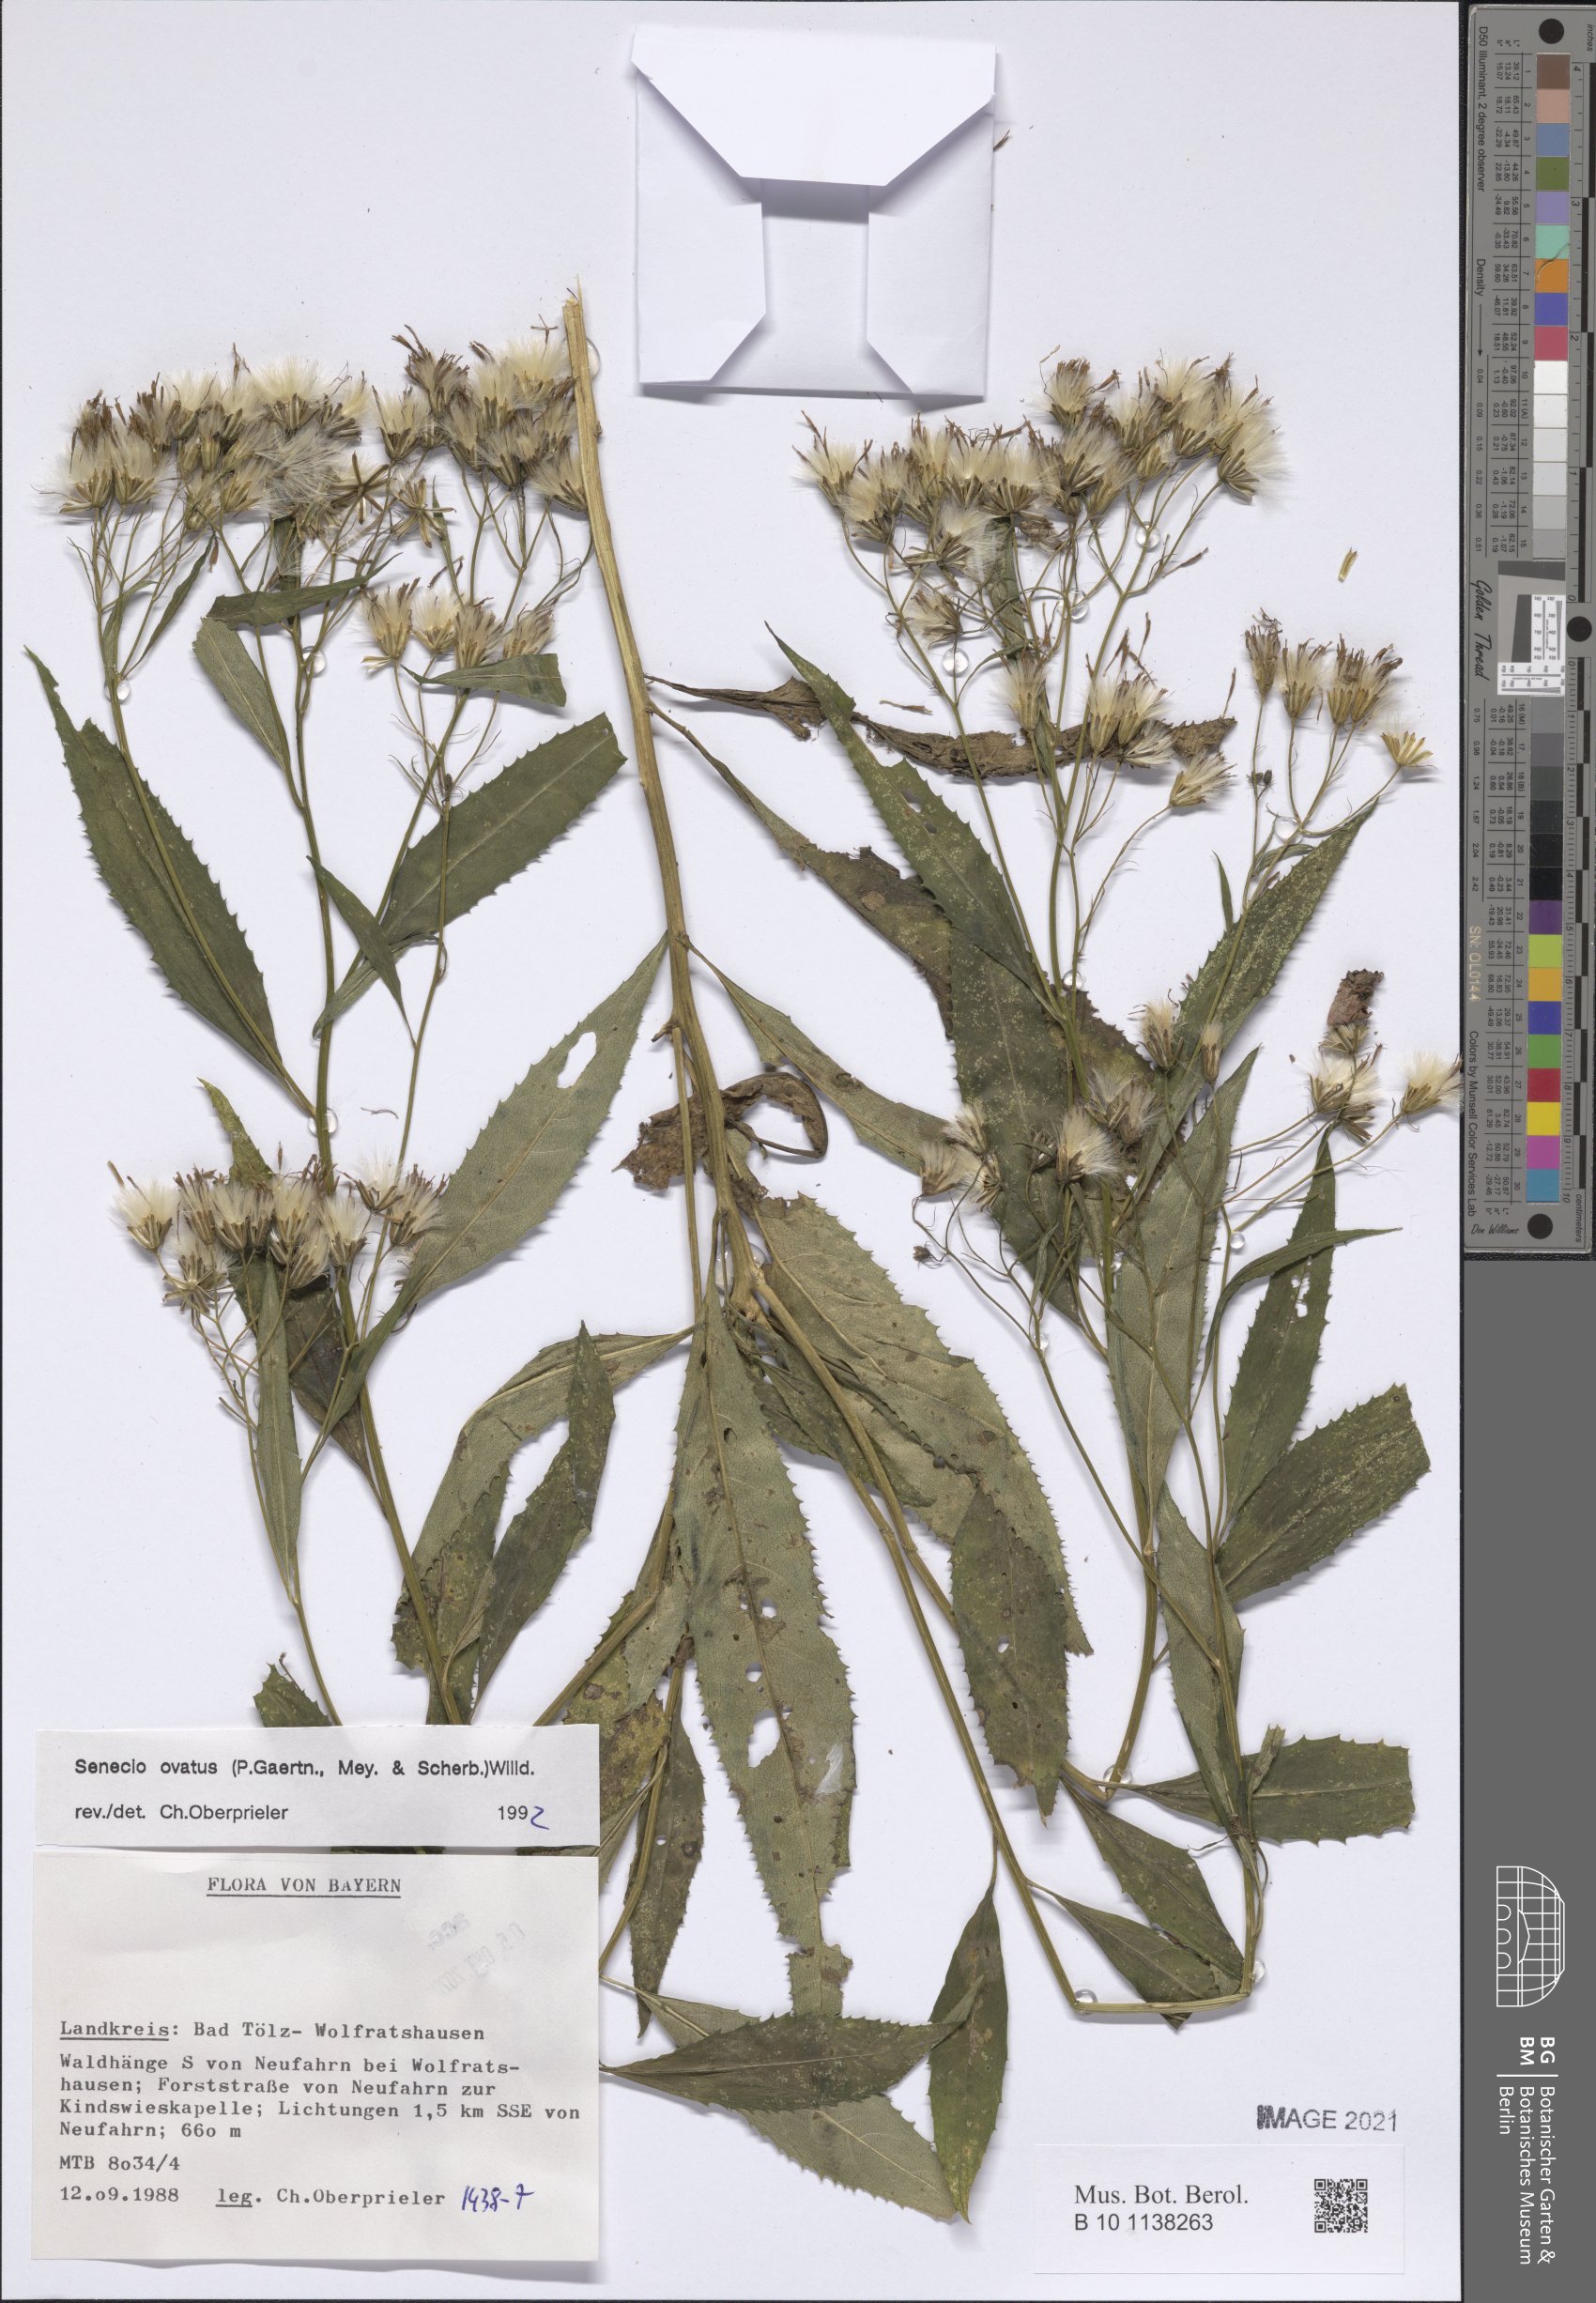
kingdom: Plantae
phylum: Tracheophyta
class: Magnoliopsida
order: Asterales
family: Asteraceae
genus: Senecio
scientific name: Senecio ovatus
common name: Wood ragwort
